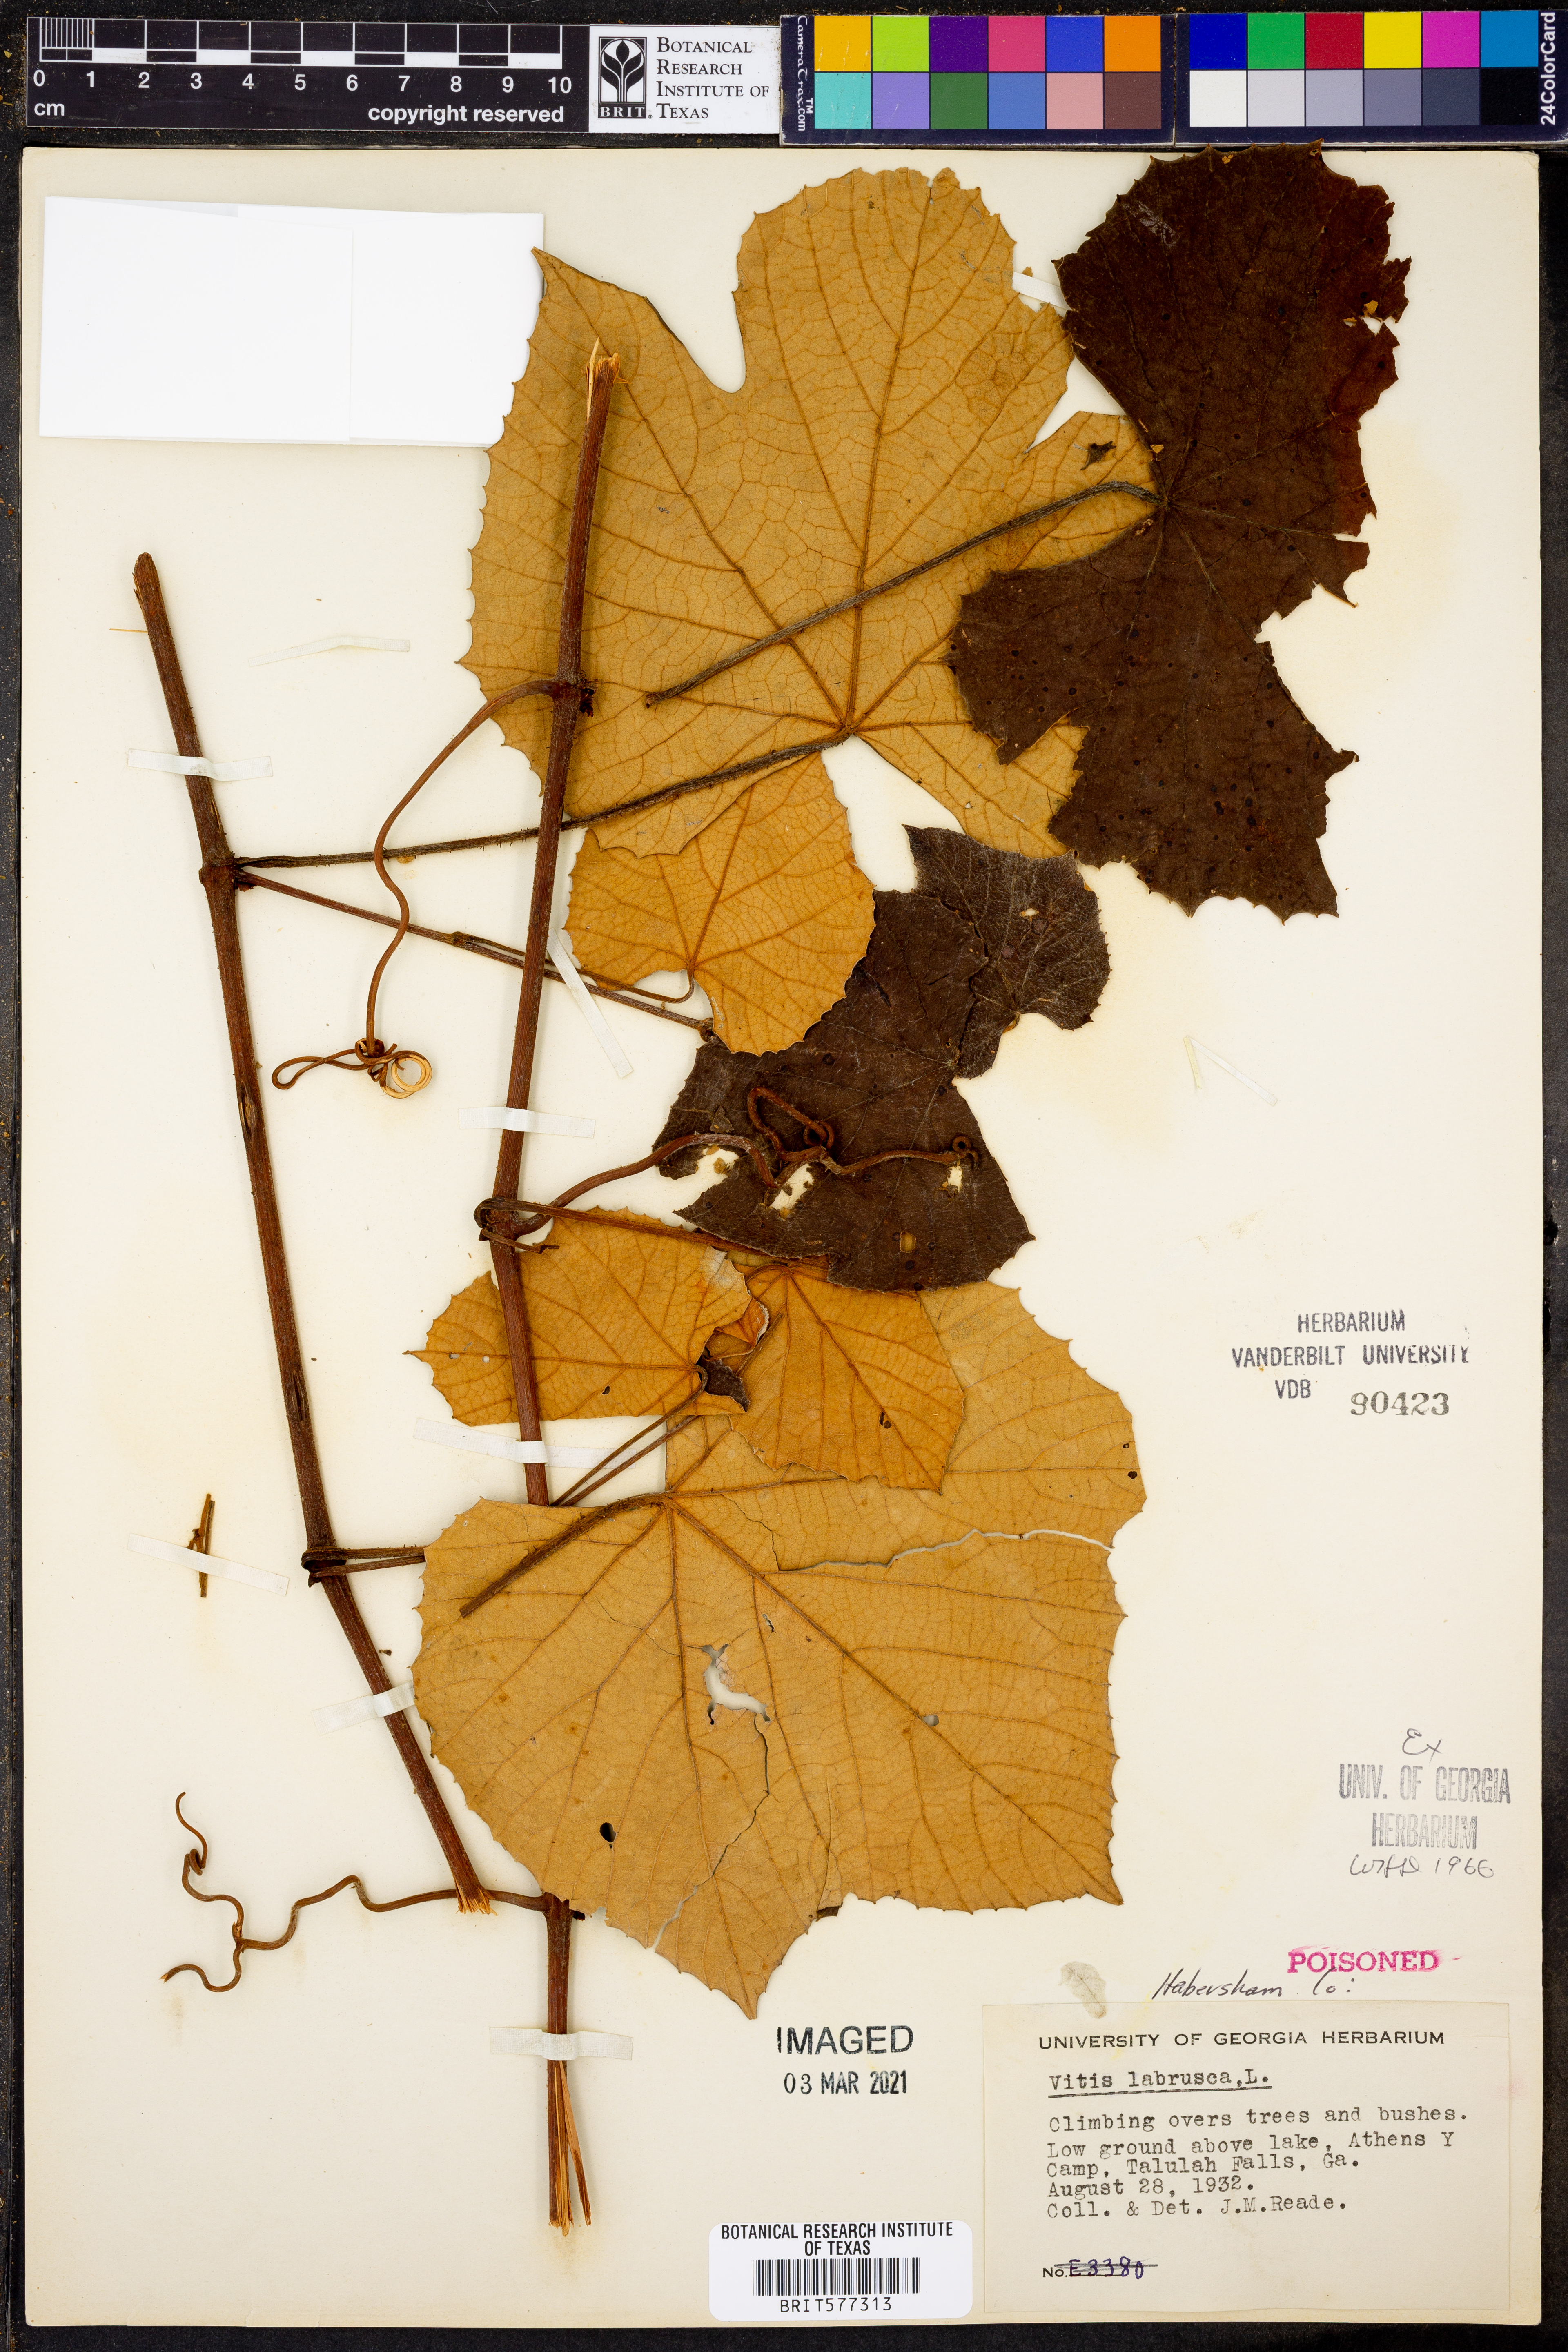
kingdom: Plantae
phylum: Tracheophyta
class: Magnoliopsida
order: Vitales
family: Vitaceae
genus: Vitis
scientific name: Vitis labrusca
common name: Concord grape
